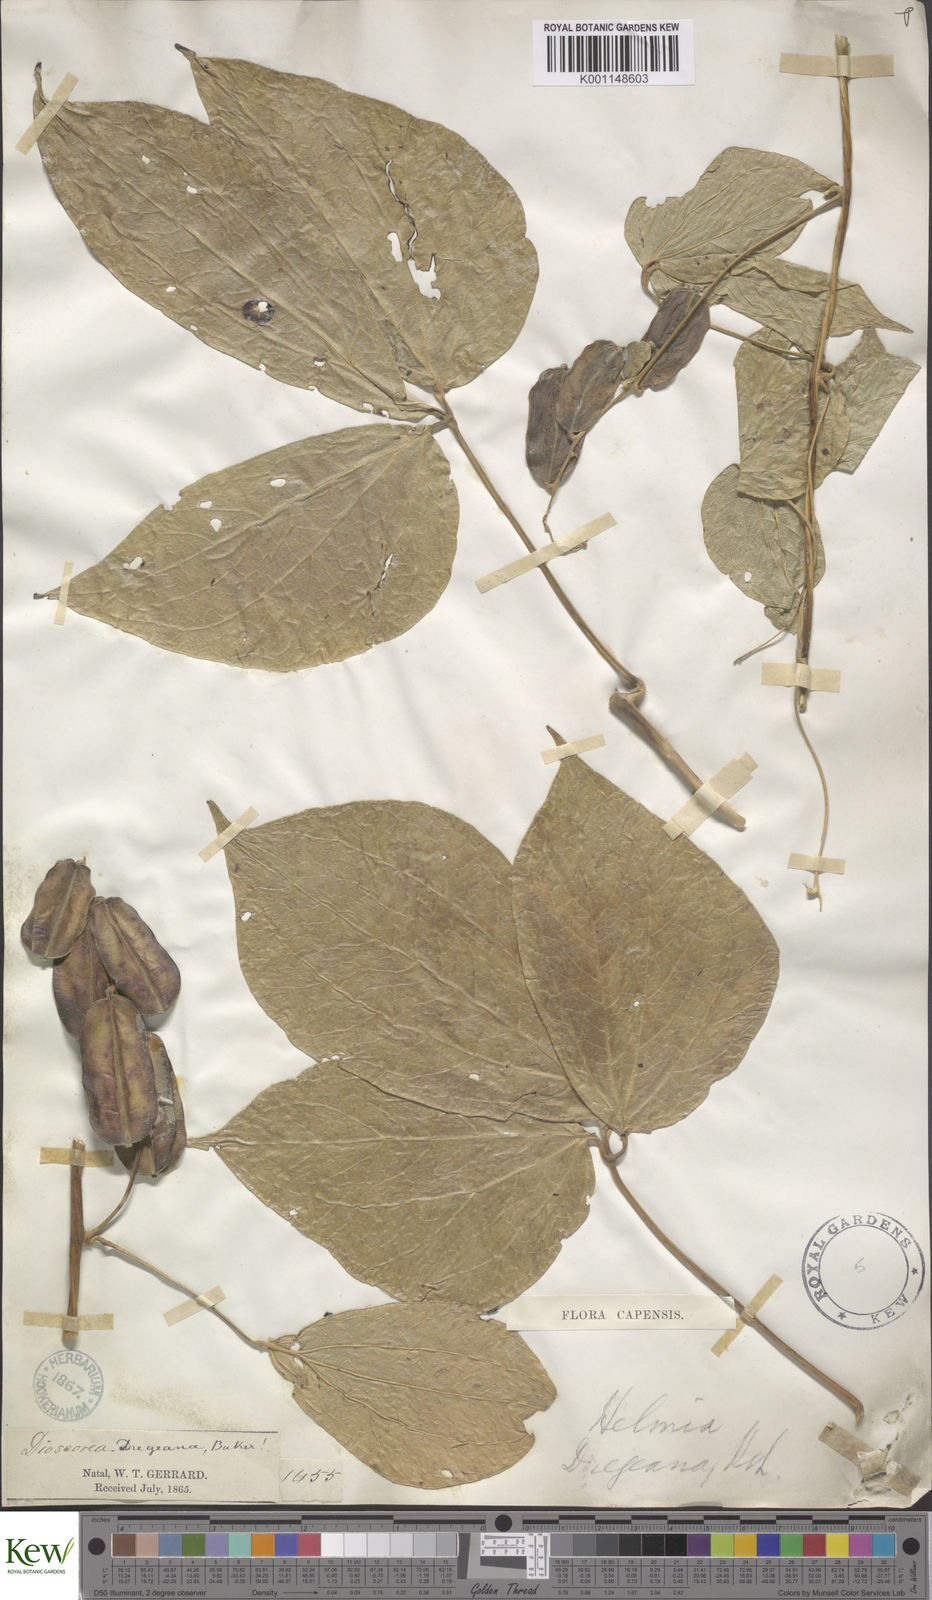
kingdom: Plantae
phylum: Tracheophyta
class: Liliopsida
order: Dioscoreales
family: Dioscoreaceae
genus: Dioscorea
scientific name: Dioscorea dregeana
